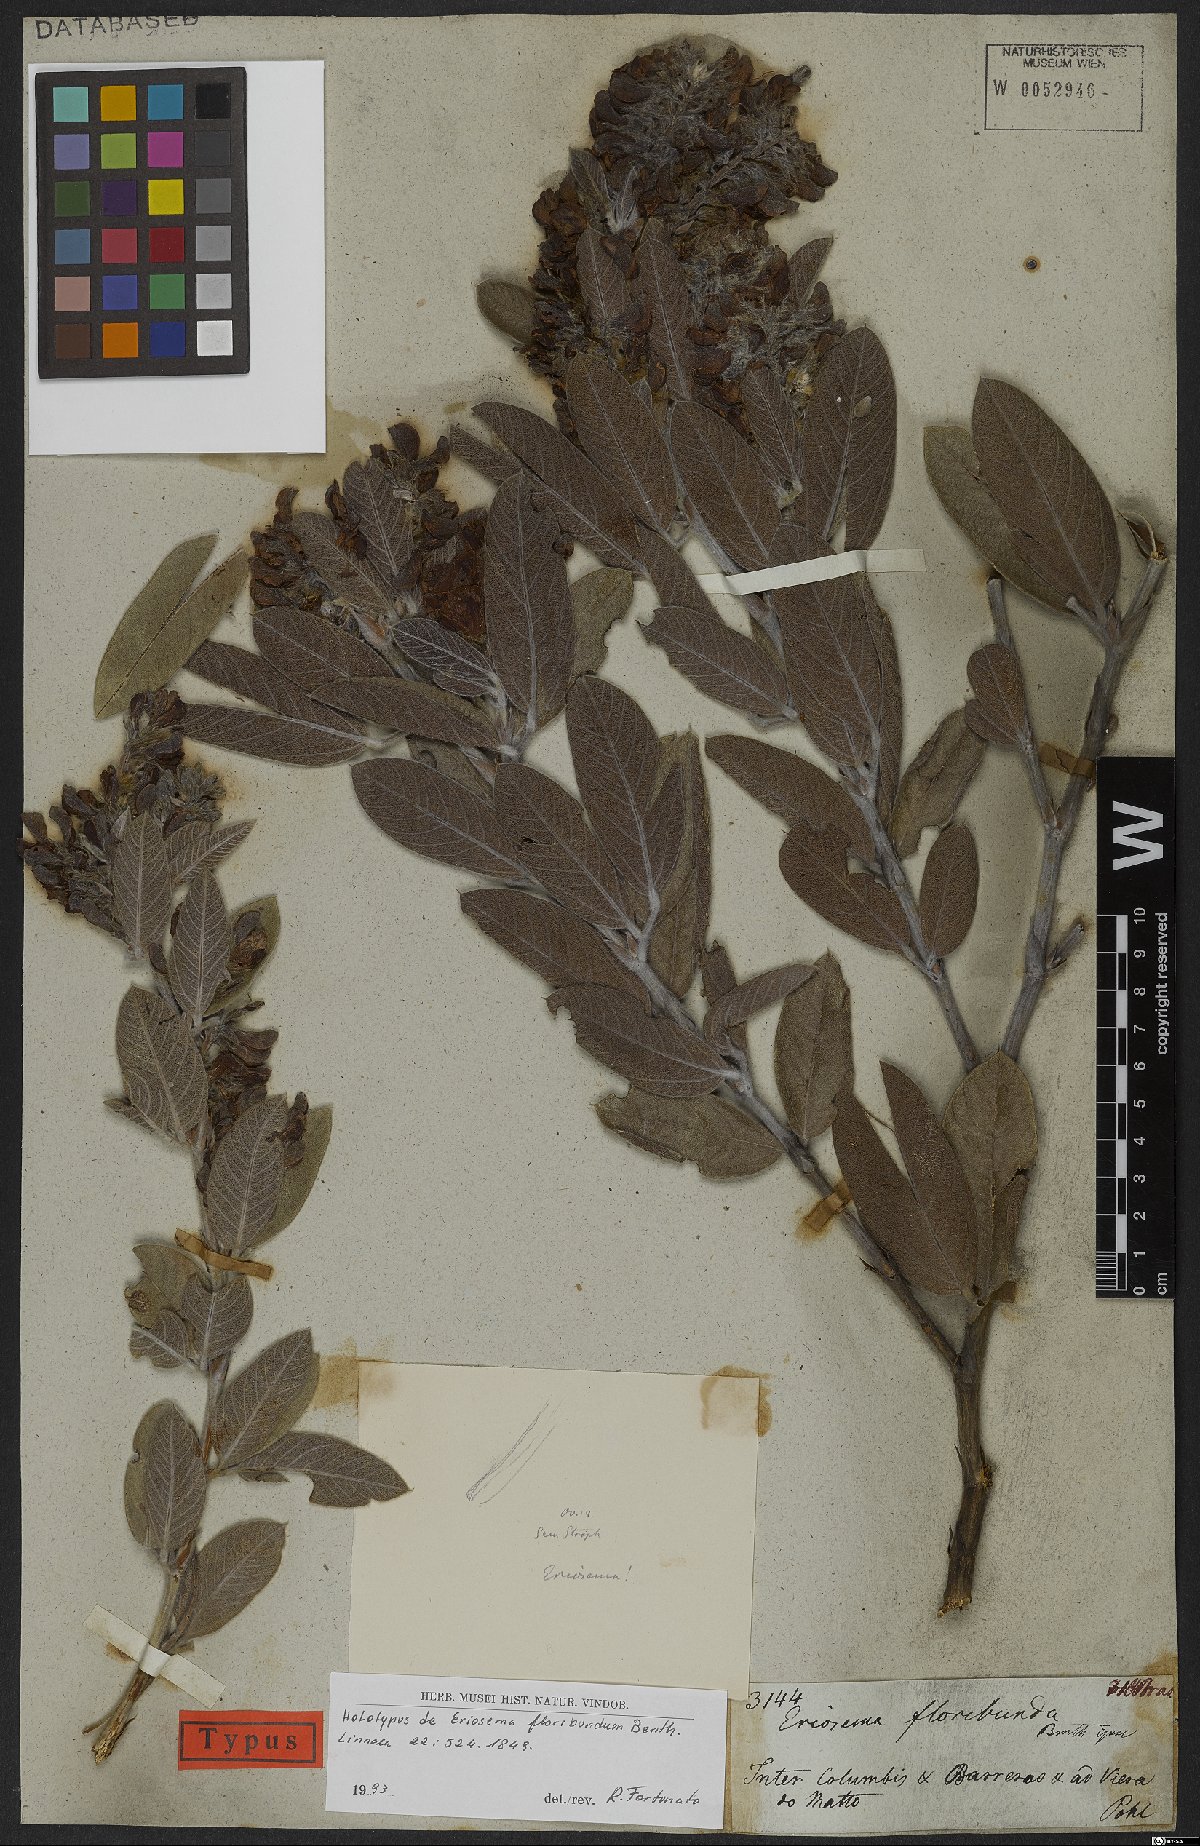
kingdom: Plantae
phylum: Tracheophyta
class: Magnoliopsida
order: Fabales
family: Fabaceae
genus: Eriosema
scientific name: Eriosema floribundum
